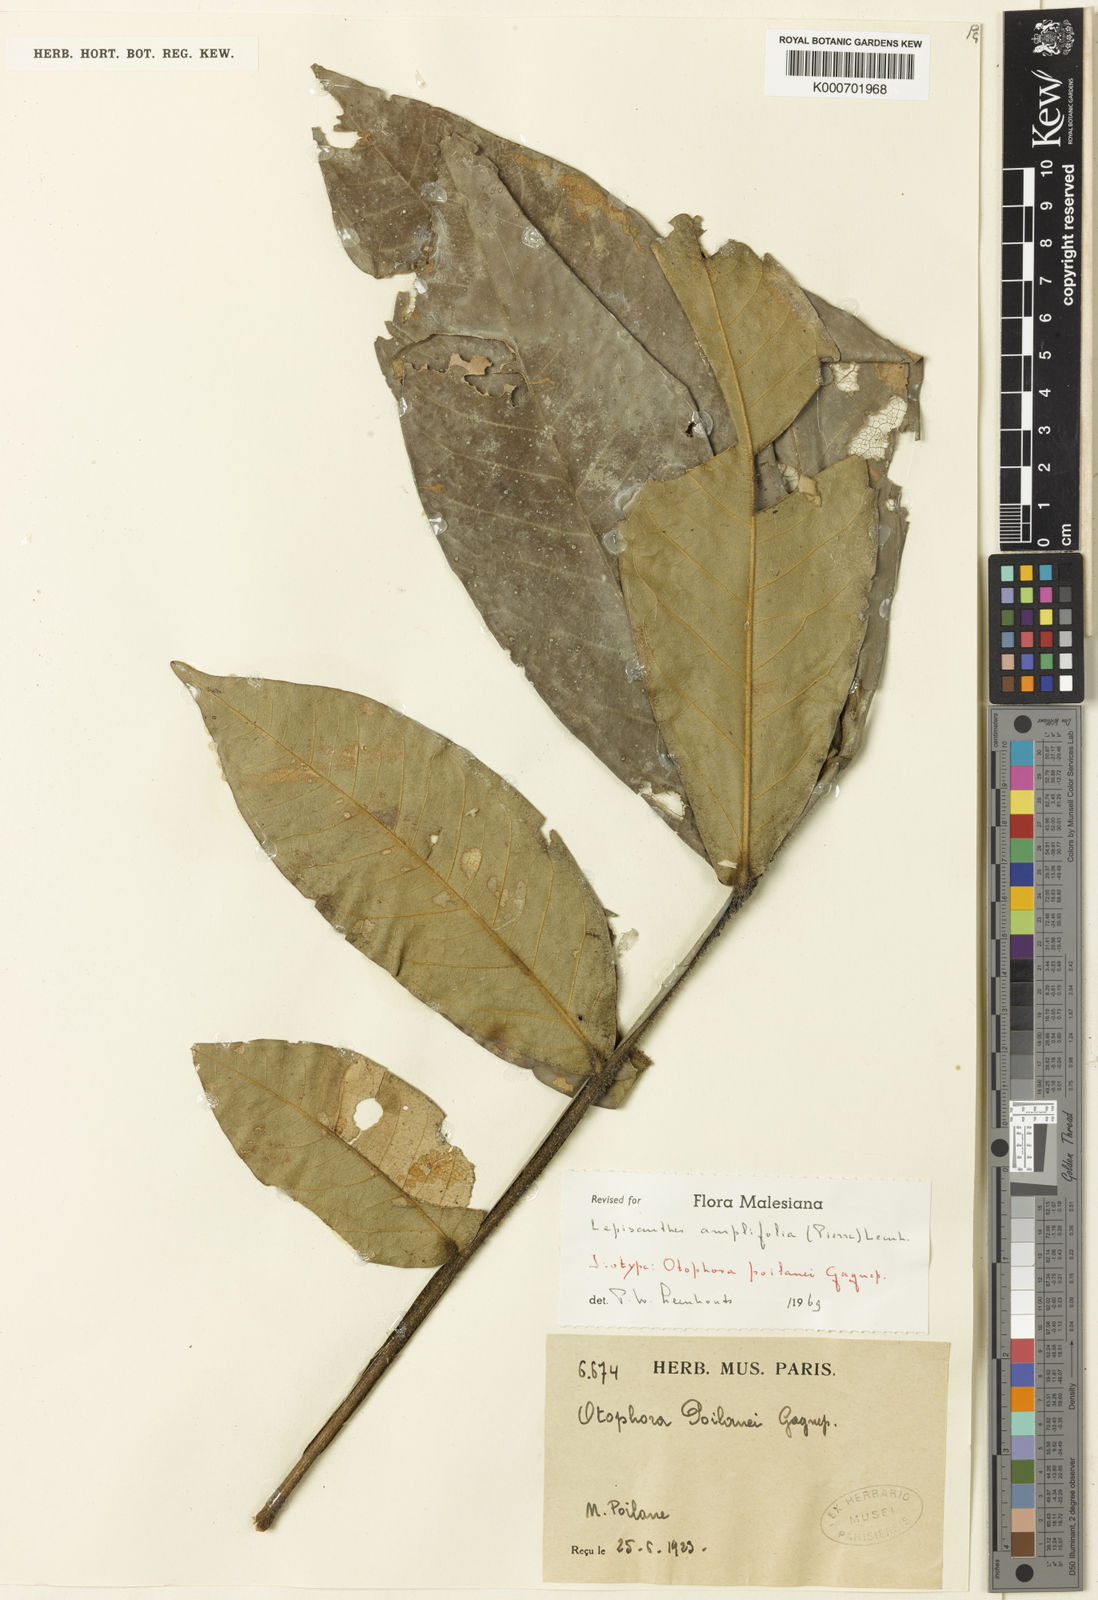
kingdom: Plantae
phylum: Tracheophyta
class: Magnoliopsida
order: Sapindales
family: Sapindaceae
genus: Lepisanthes
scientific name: Lepisanthes amplifolia
